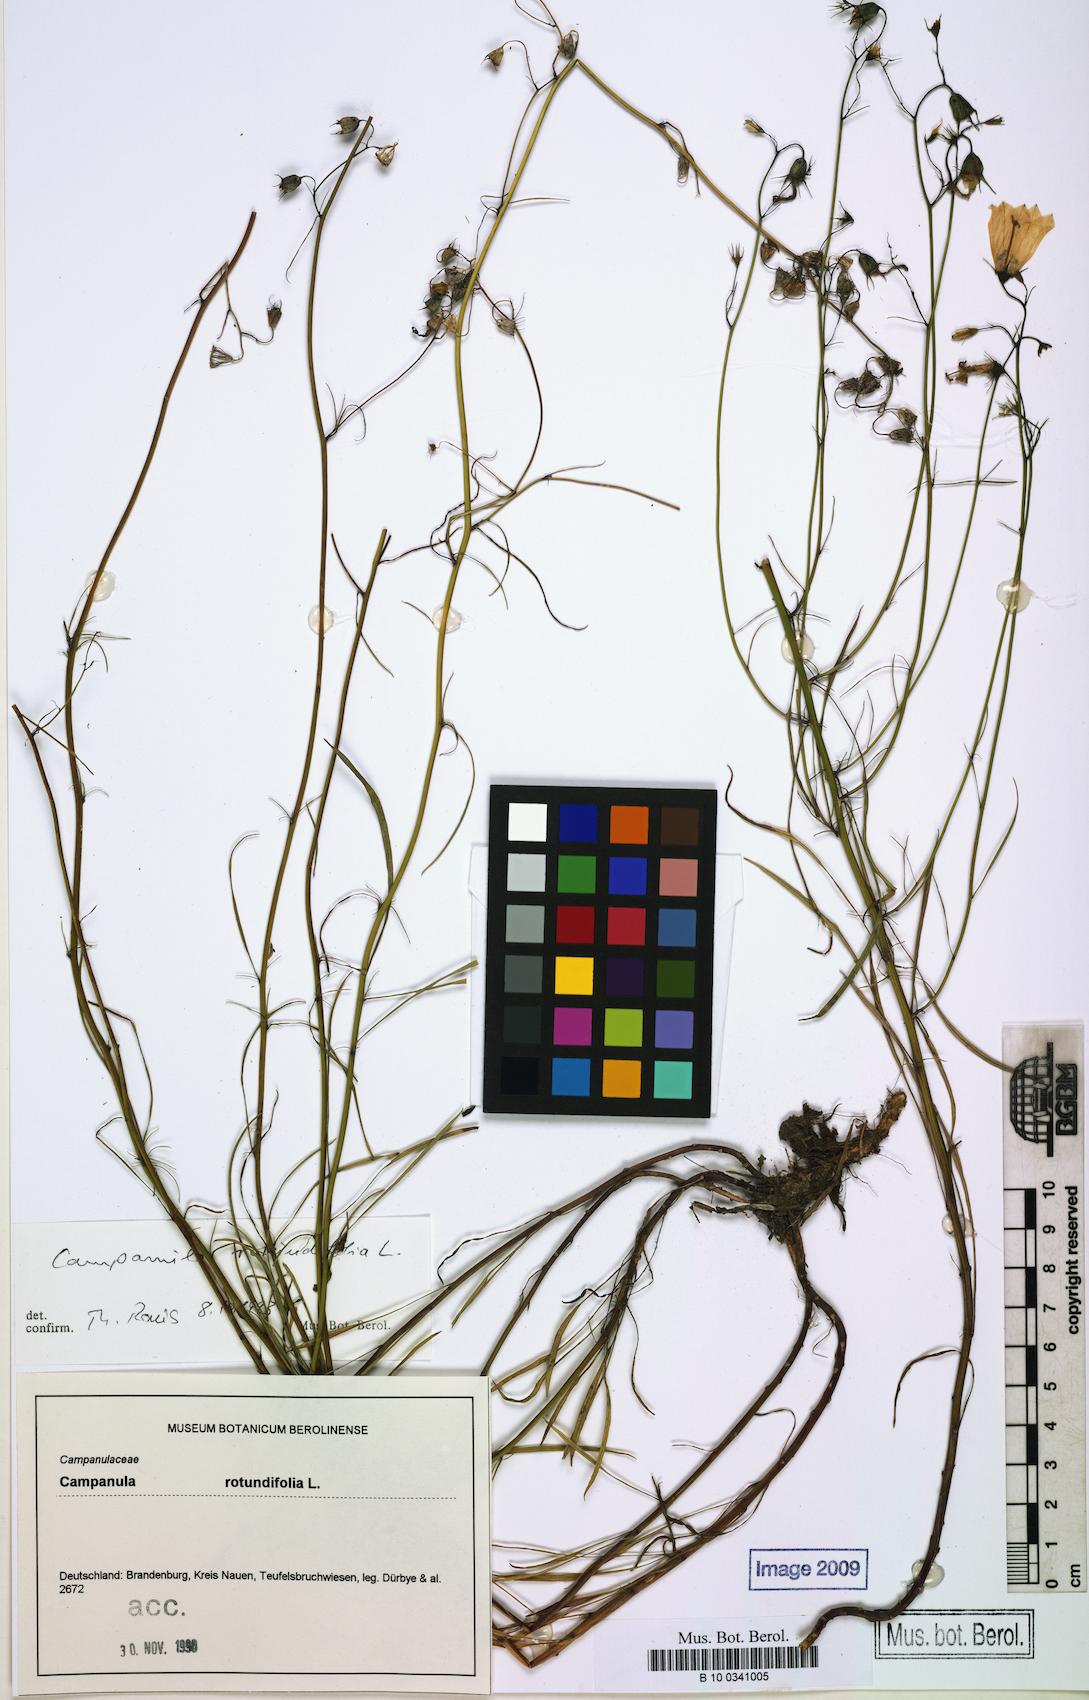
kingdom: Plantae
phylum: Tracheophyta
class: Magnoliopsida
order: Asterales
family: Campanulaceae
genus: Campanula
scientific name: Campanula rotundifolia
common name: Harebell
